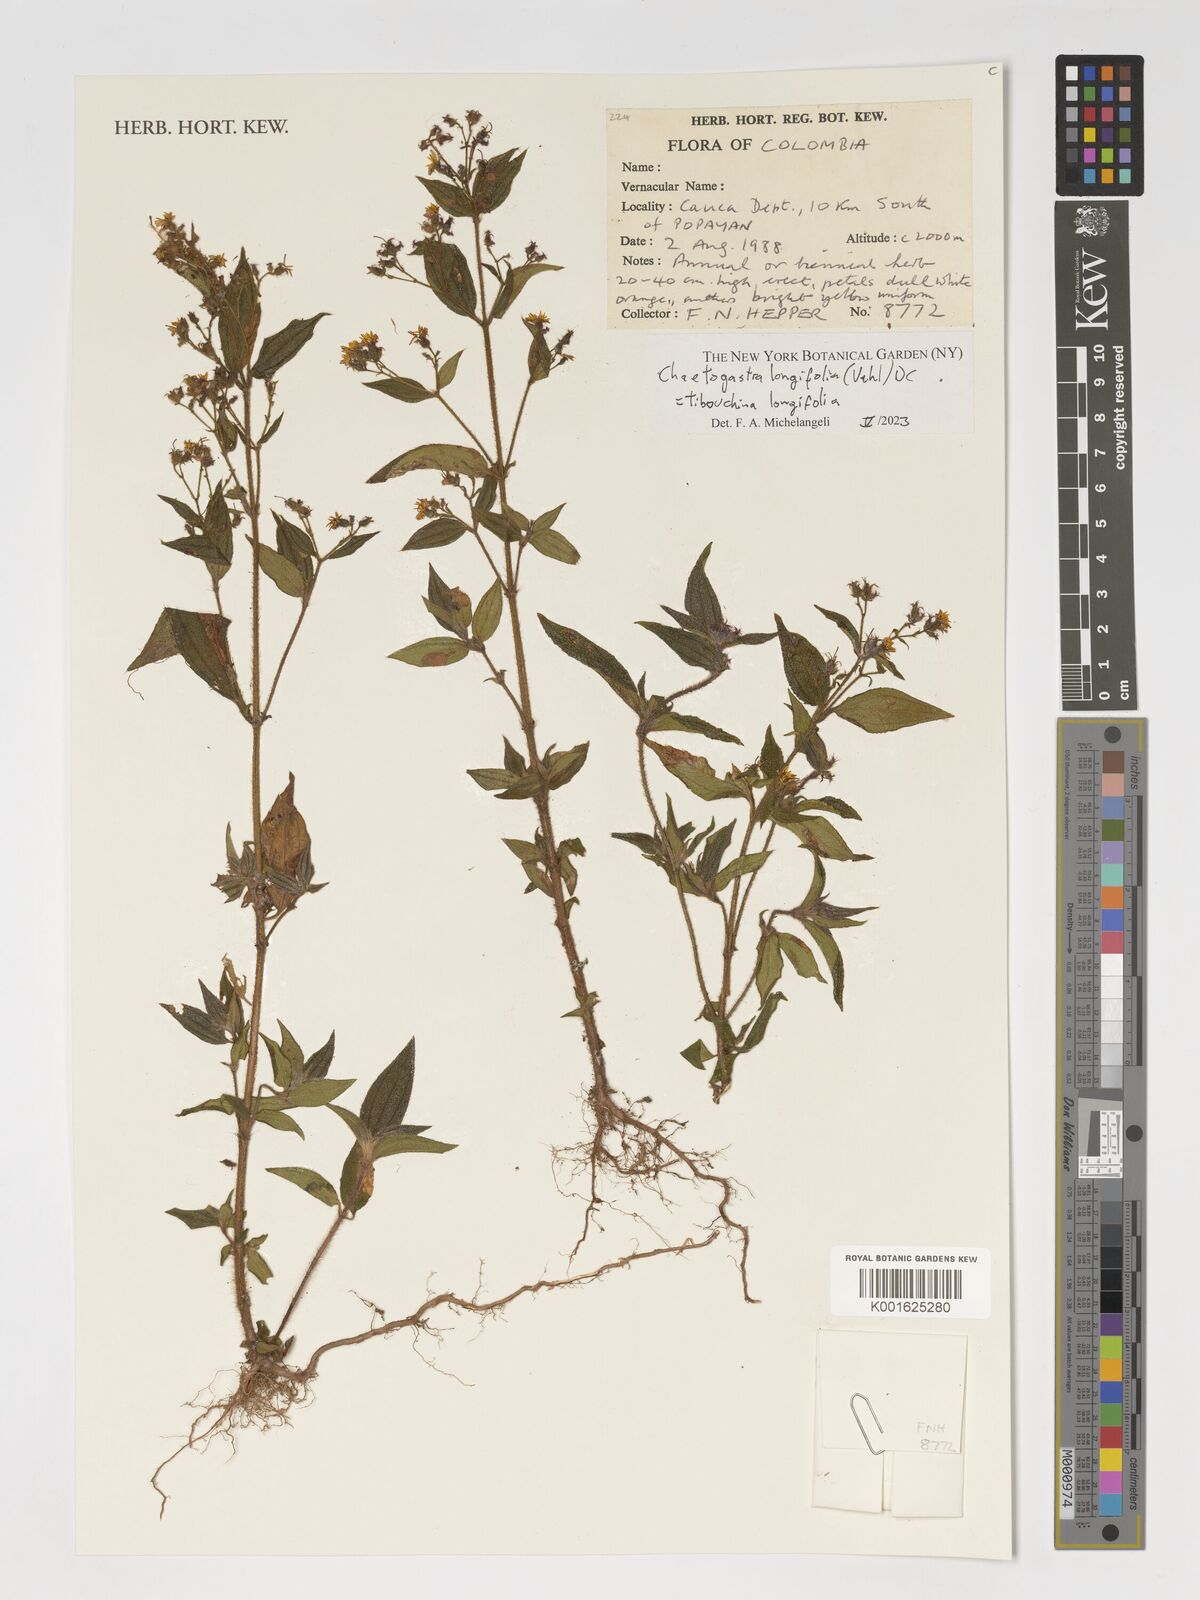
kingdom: Plantae
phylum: Tracheophyta
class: Magnoliopsida
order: Myrtales
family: Melastomataceae
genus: Chaetogastra
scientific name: Chaetogastra longifolia
